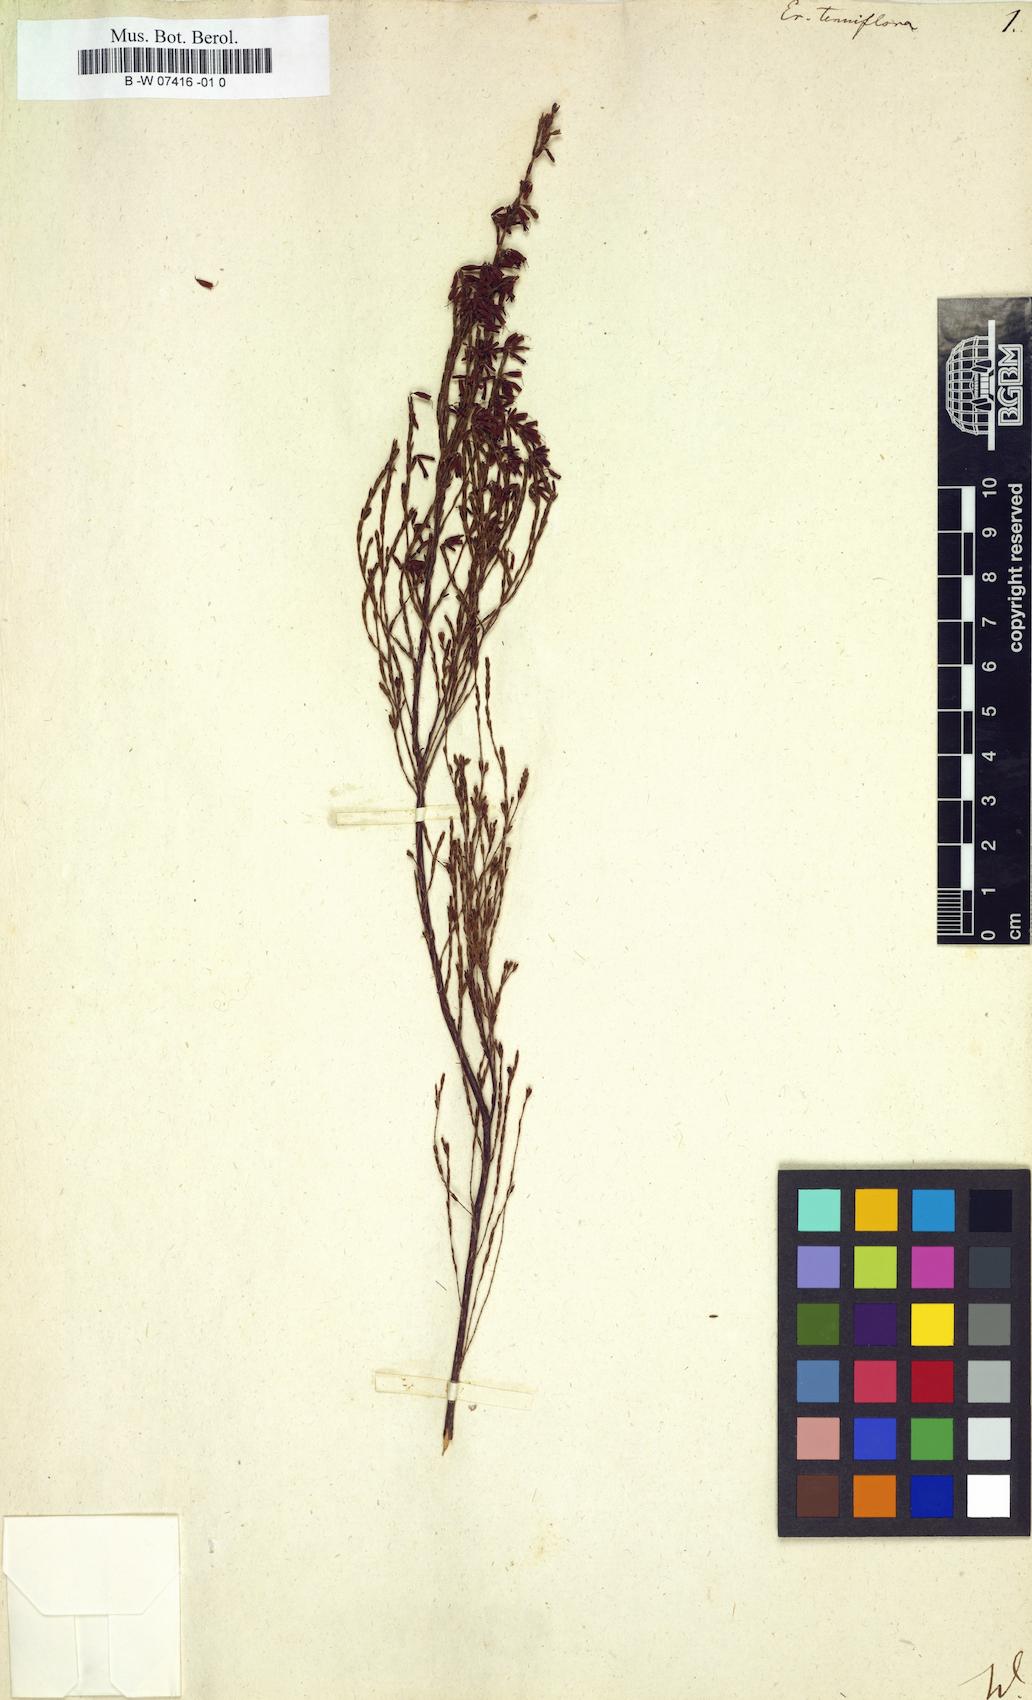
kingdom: Plantae
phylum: Tracheophyta
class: Magnoliopsida
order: Ericales
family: Ericaceae
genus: Erica
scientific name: Erica cylindrica
